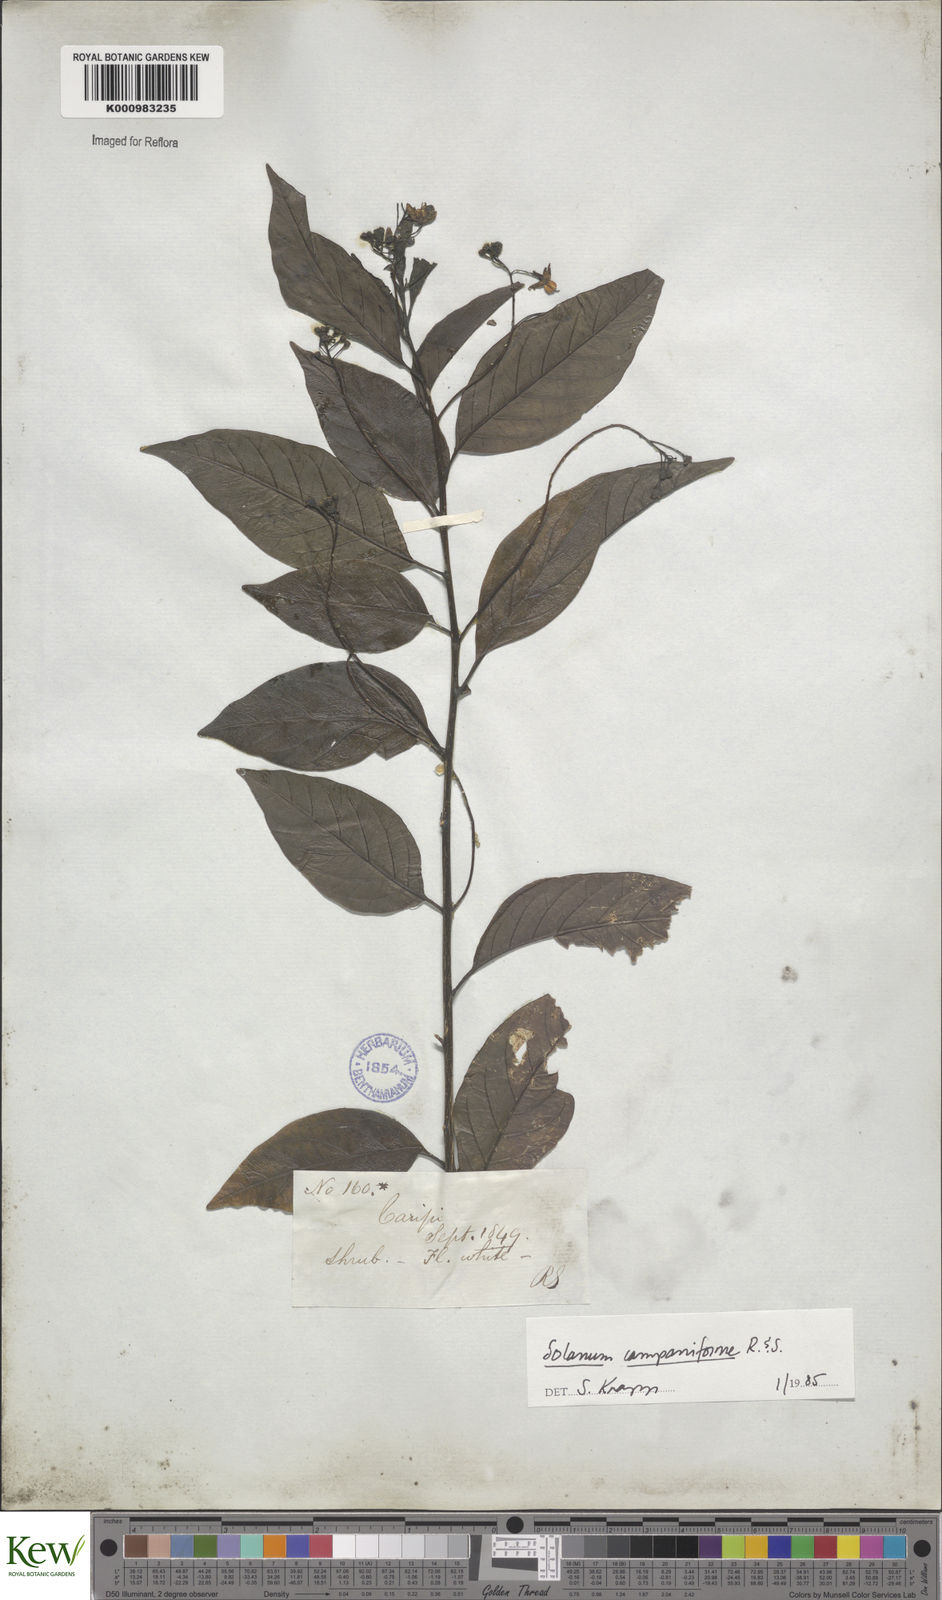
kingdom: Plantae
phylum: Tracheophyta
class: Magnoliopsida
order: Solanales
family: Solanaceae
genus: Solanum
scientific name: Solanum campaniforme
